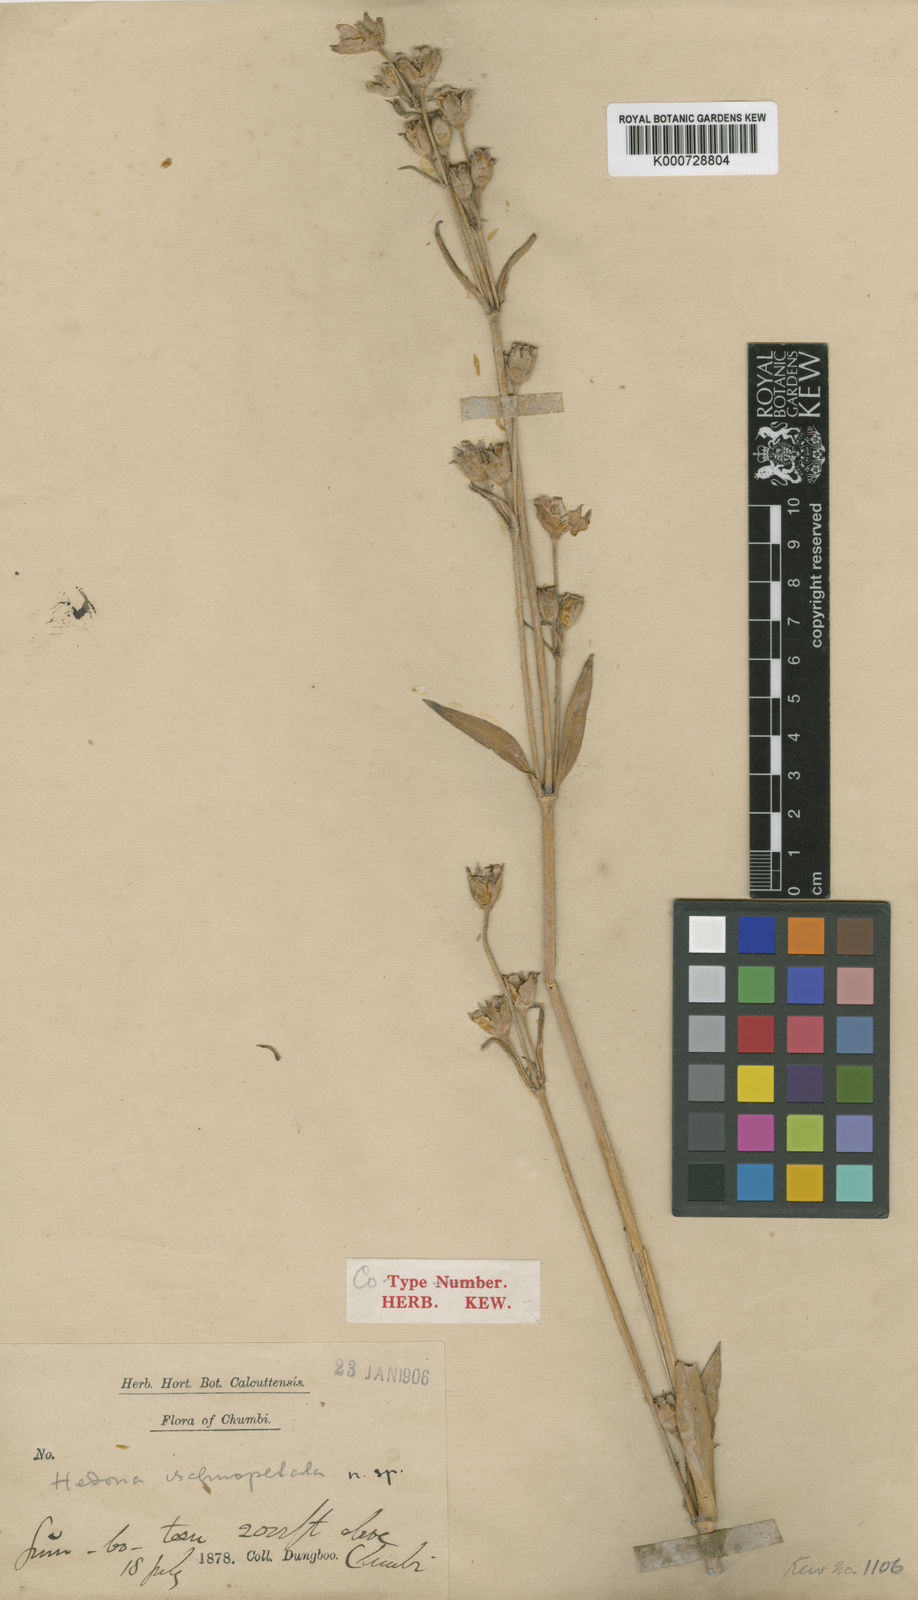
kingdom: Plantae
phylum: Tracheophyta
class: Magnoliopsida
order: Caryophyllales
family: Caryophyllaceae
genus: Silene
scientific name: Silene
